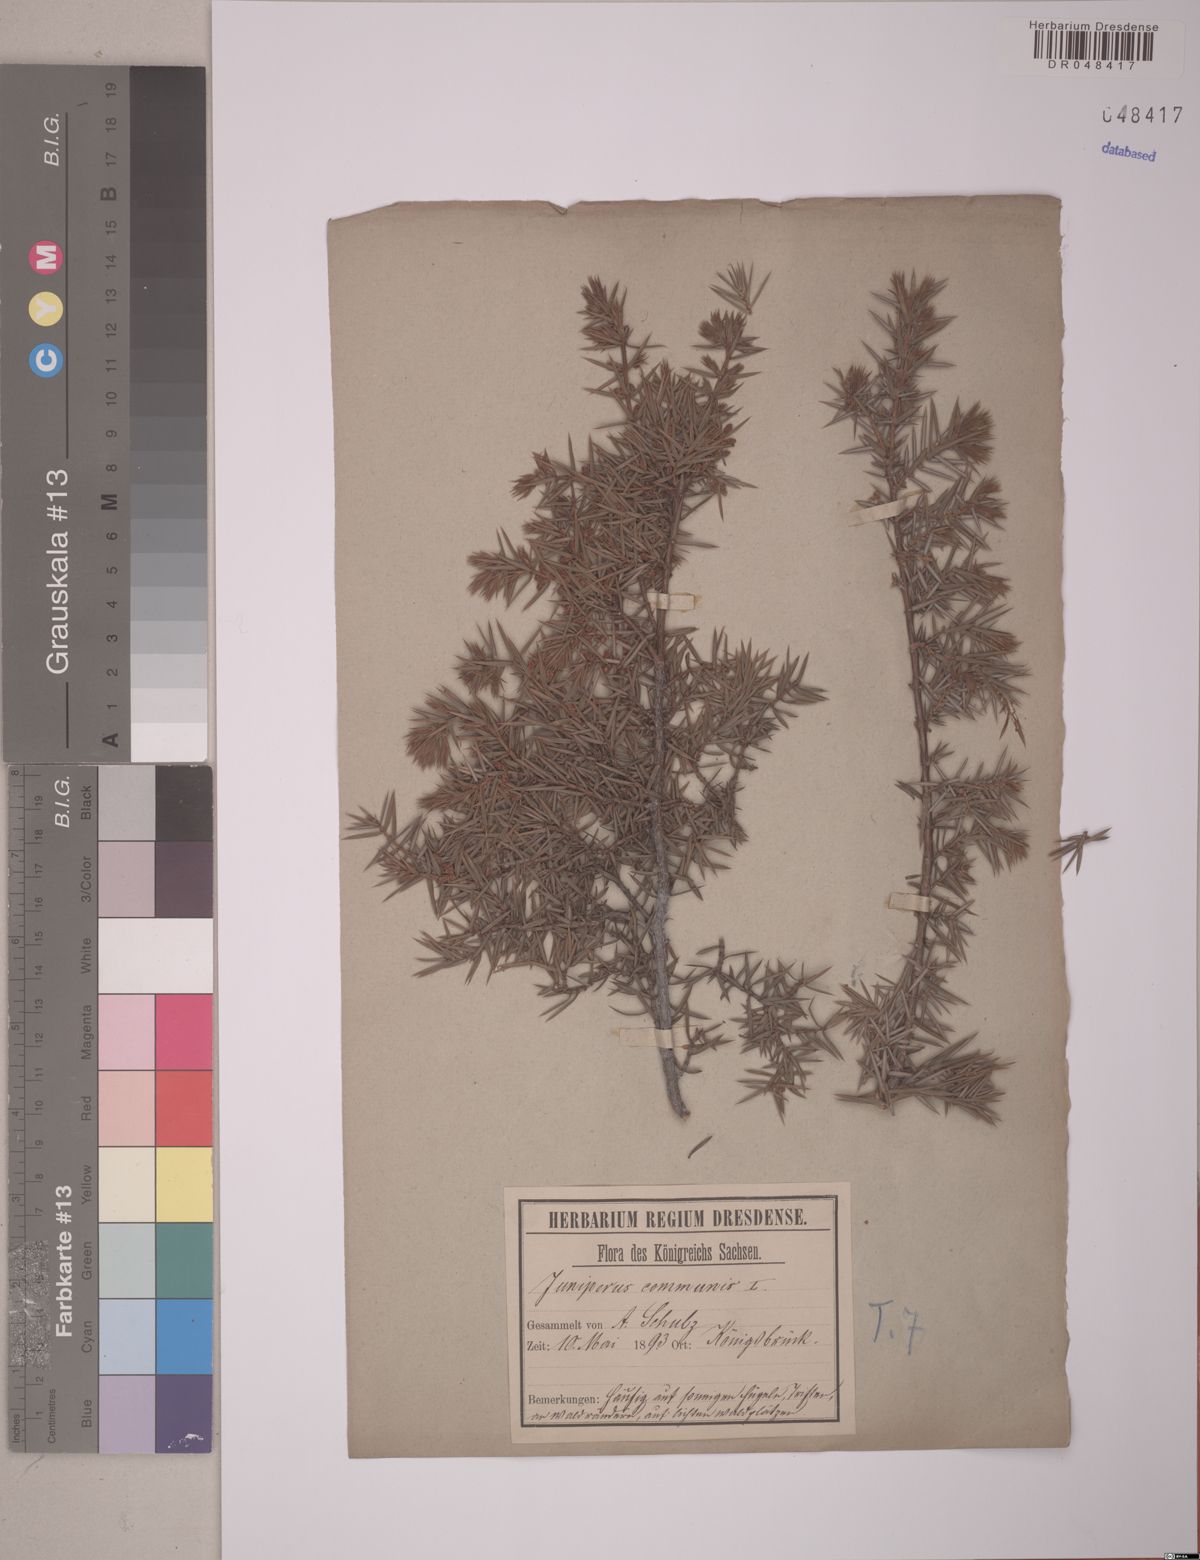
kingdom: Plantae
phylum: Tracheophyta
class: Pinopsida
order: Pinales
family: Cupressaceae
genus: Juniperus
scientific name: Juniperus communis
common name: Common juniper
